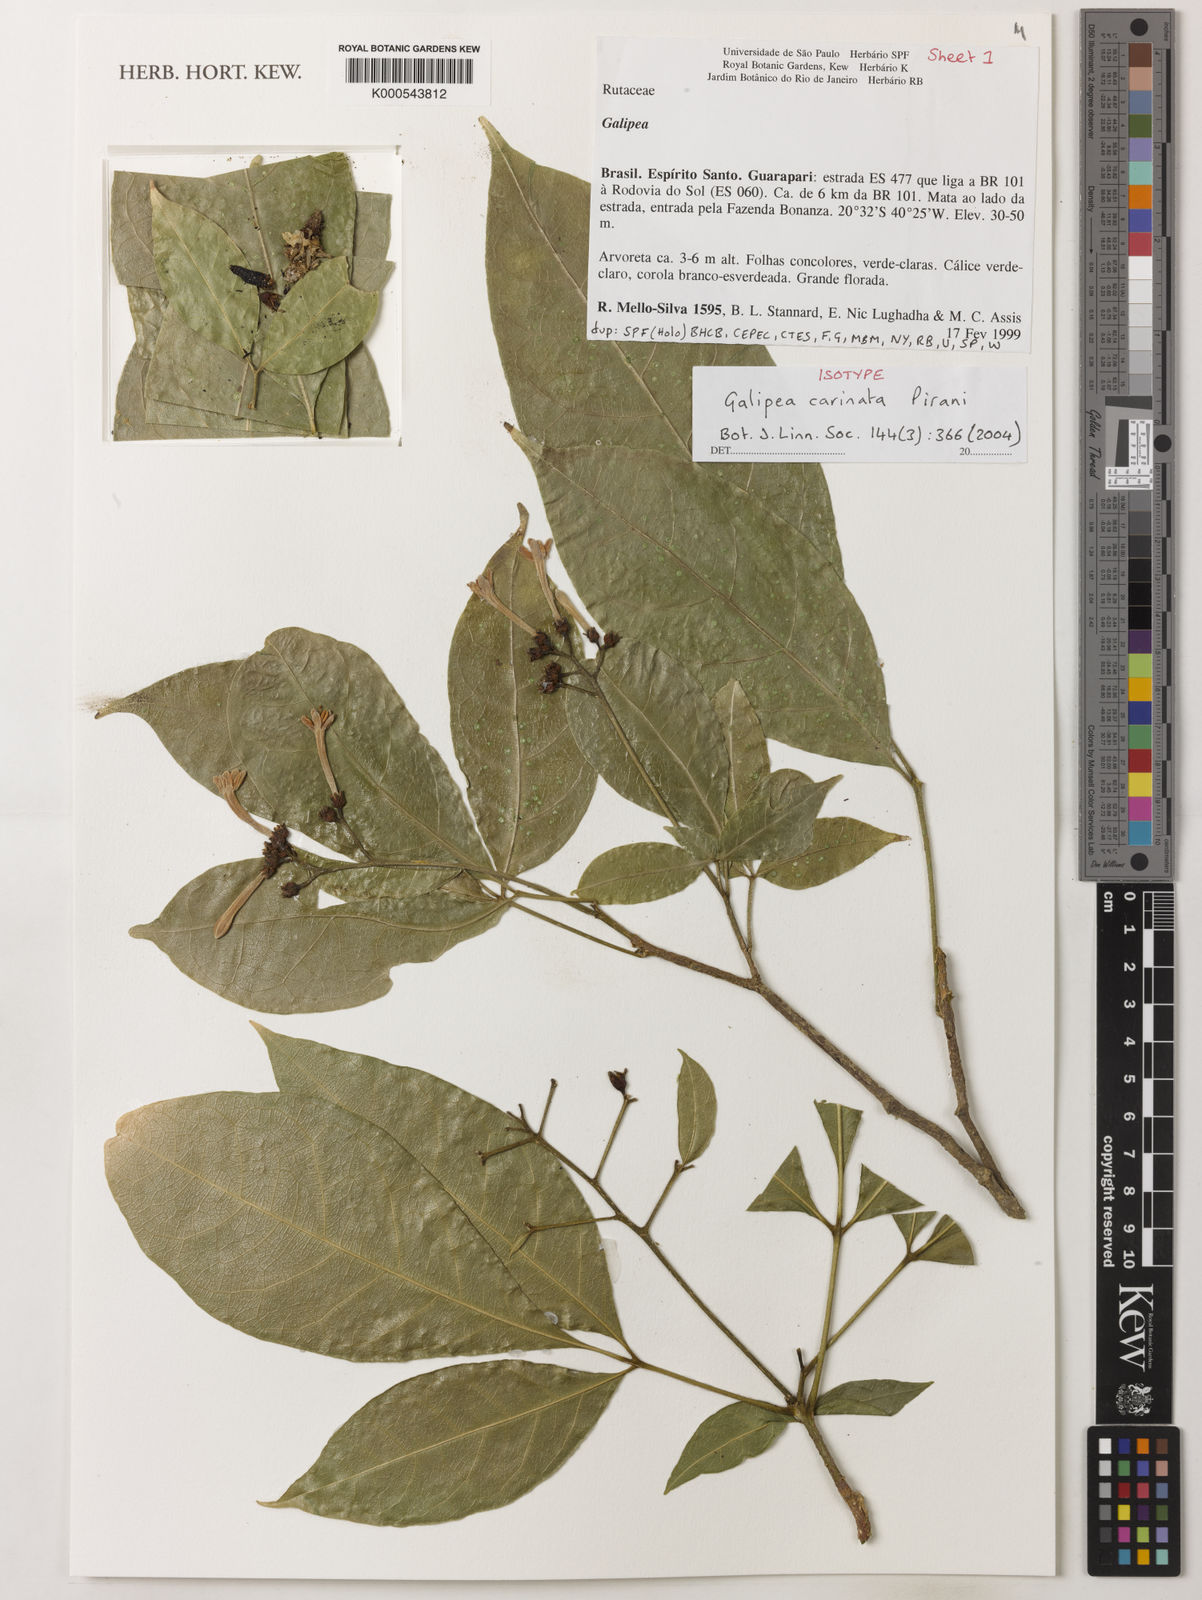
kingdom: Plantae
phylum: Tracheophyta
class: Magnoliopsida
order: Sapindales
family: Rutaceae
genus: Galipea
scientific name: Galipea carinata
